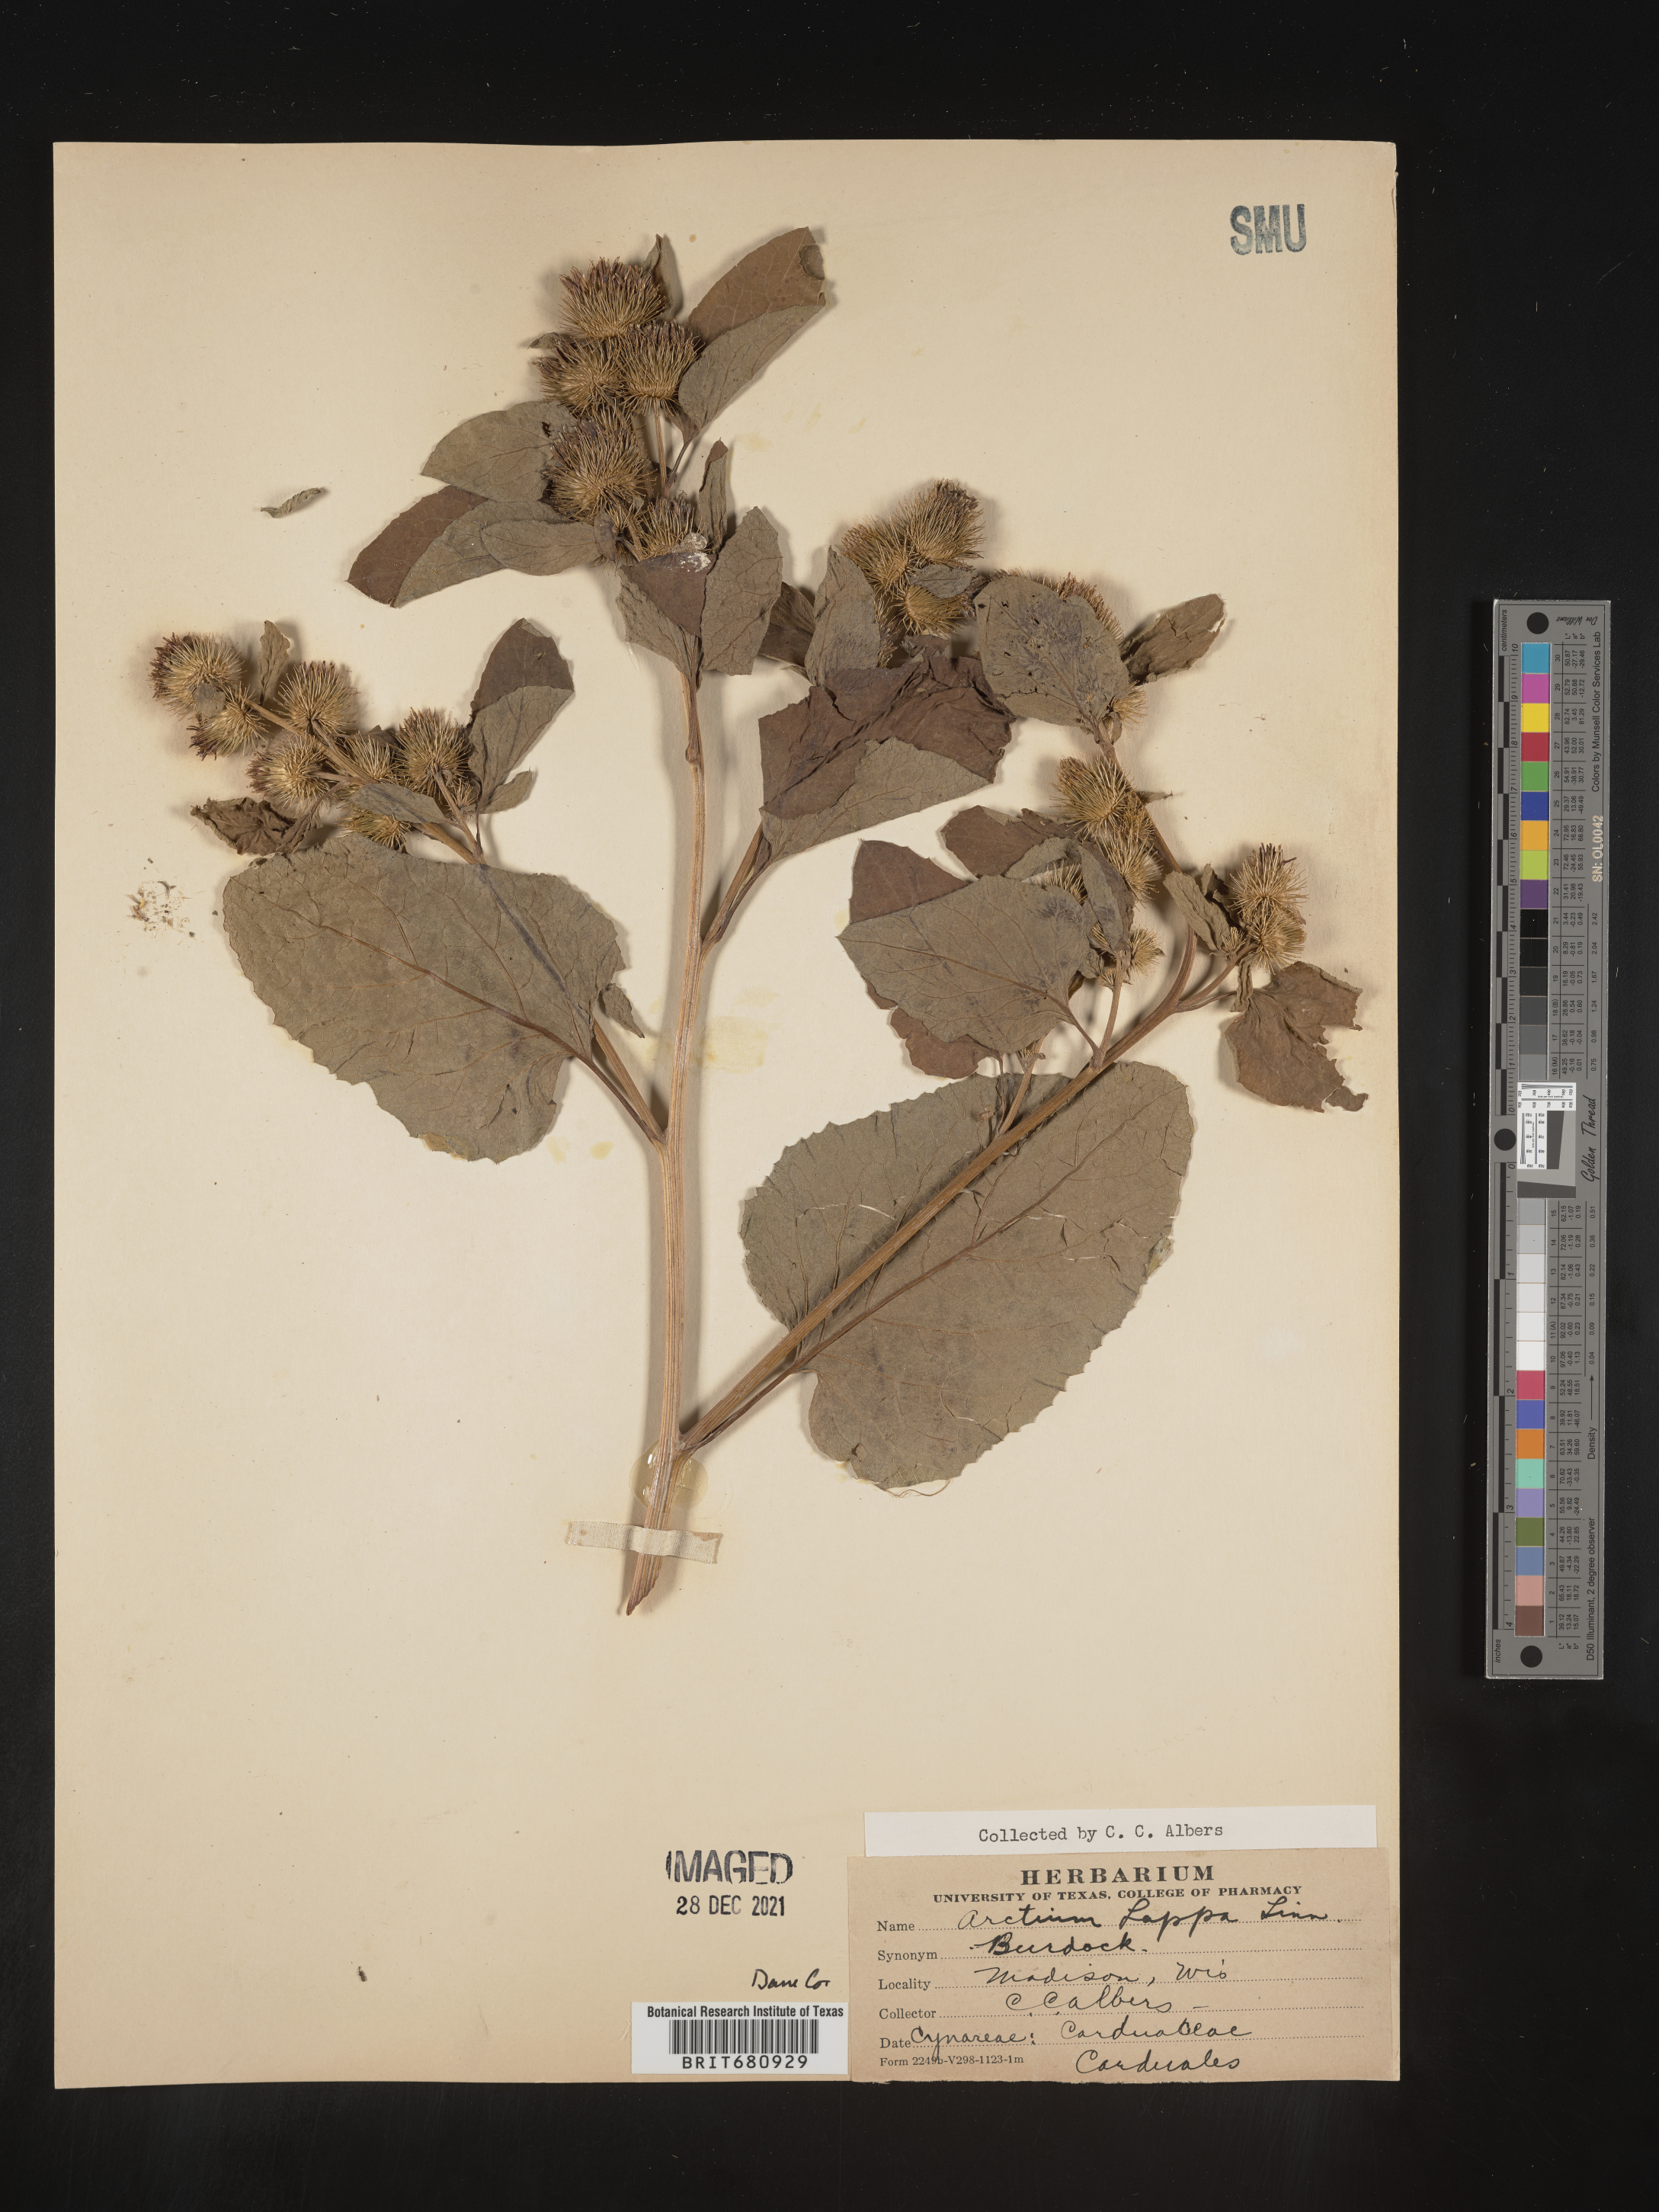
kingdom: Plantae
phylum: Tracheophyta
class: Magnoliopsida
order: Asterales
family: Asteraceae
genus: Arctium
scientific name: Arctium minus
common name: Lesser burdock
